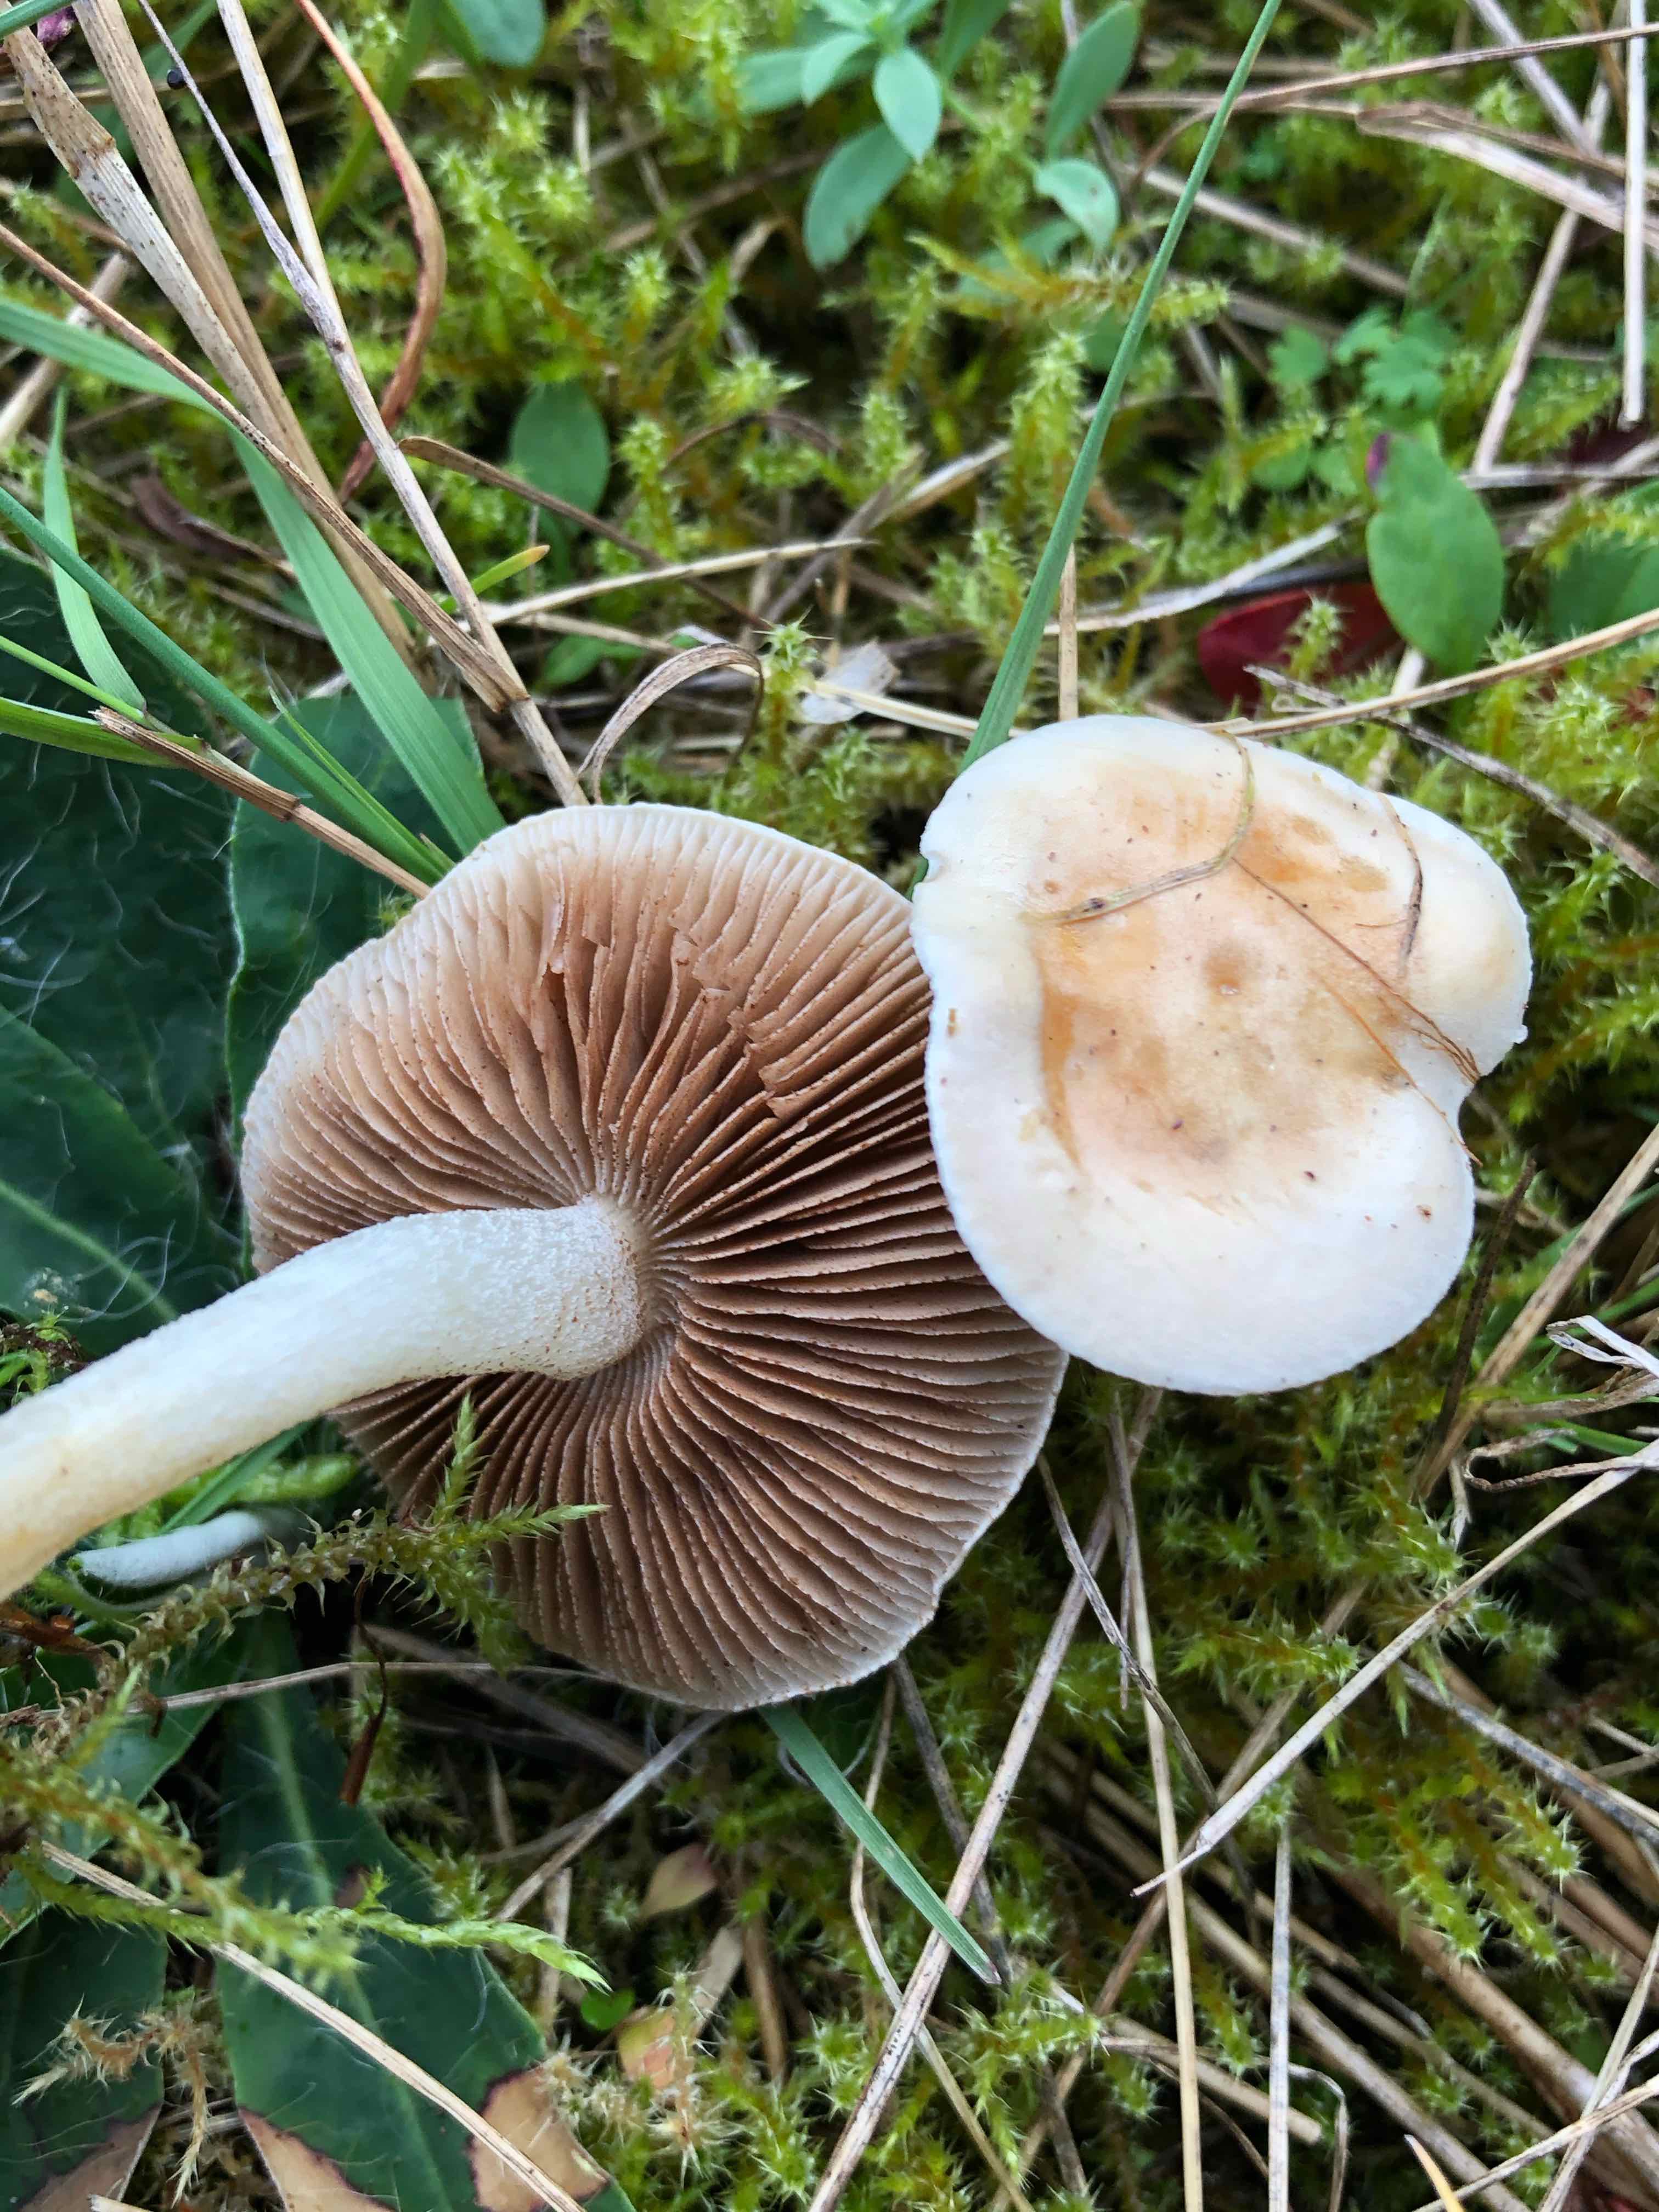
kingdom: Fungi
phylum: Basidiomycota
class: Agaricomycetes
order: Agaricales
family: Hymenogastraceae
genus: Hebeloma
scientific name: Hebeloma
